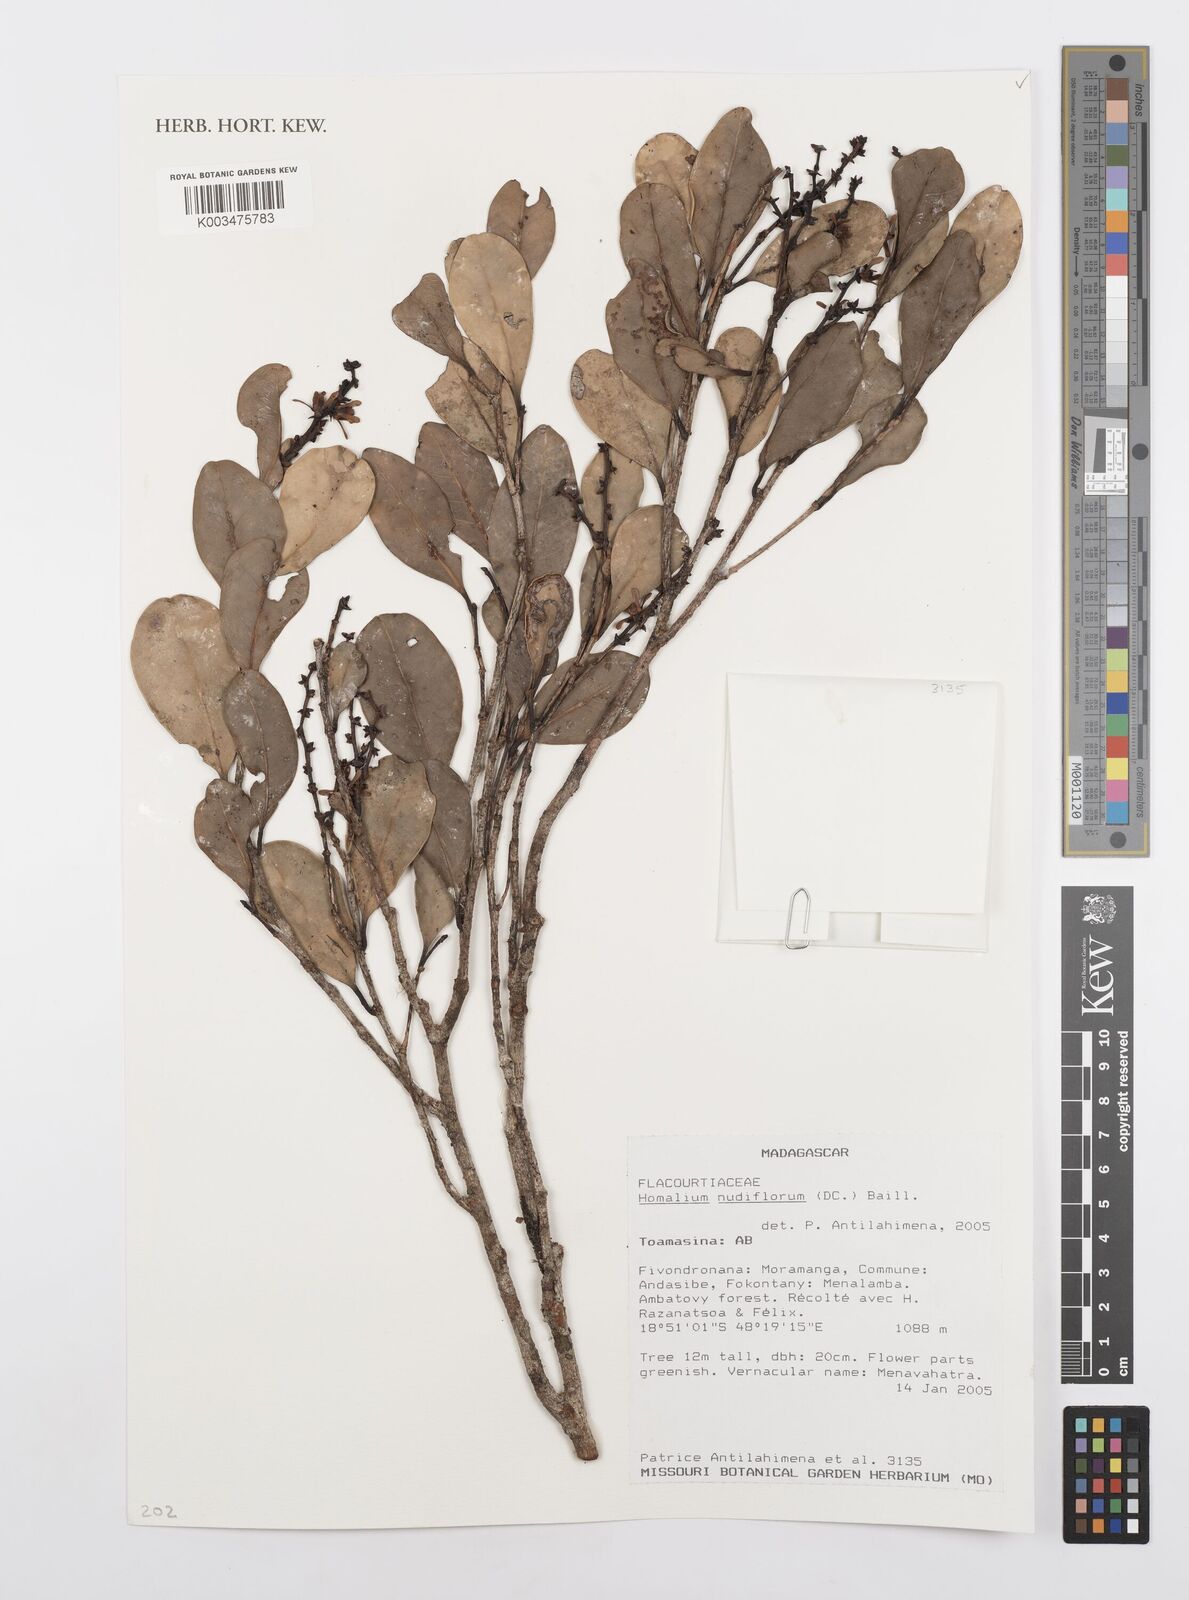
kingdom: Plantae
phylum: Tracheophyta
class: Magnoliopsida
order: Malpighiales
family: Salicaceae
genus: Homalium
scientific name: Homalium nudiflorum
